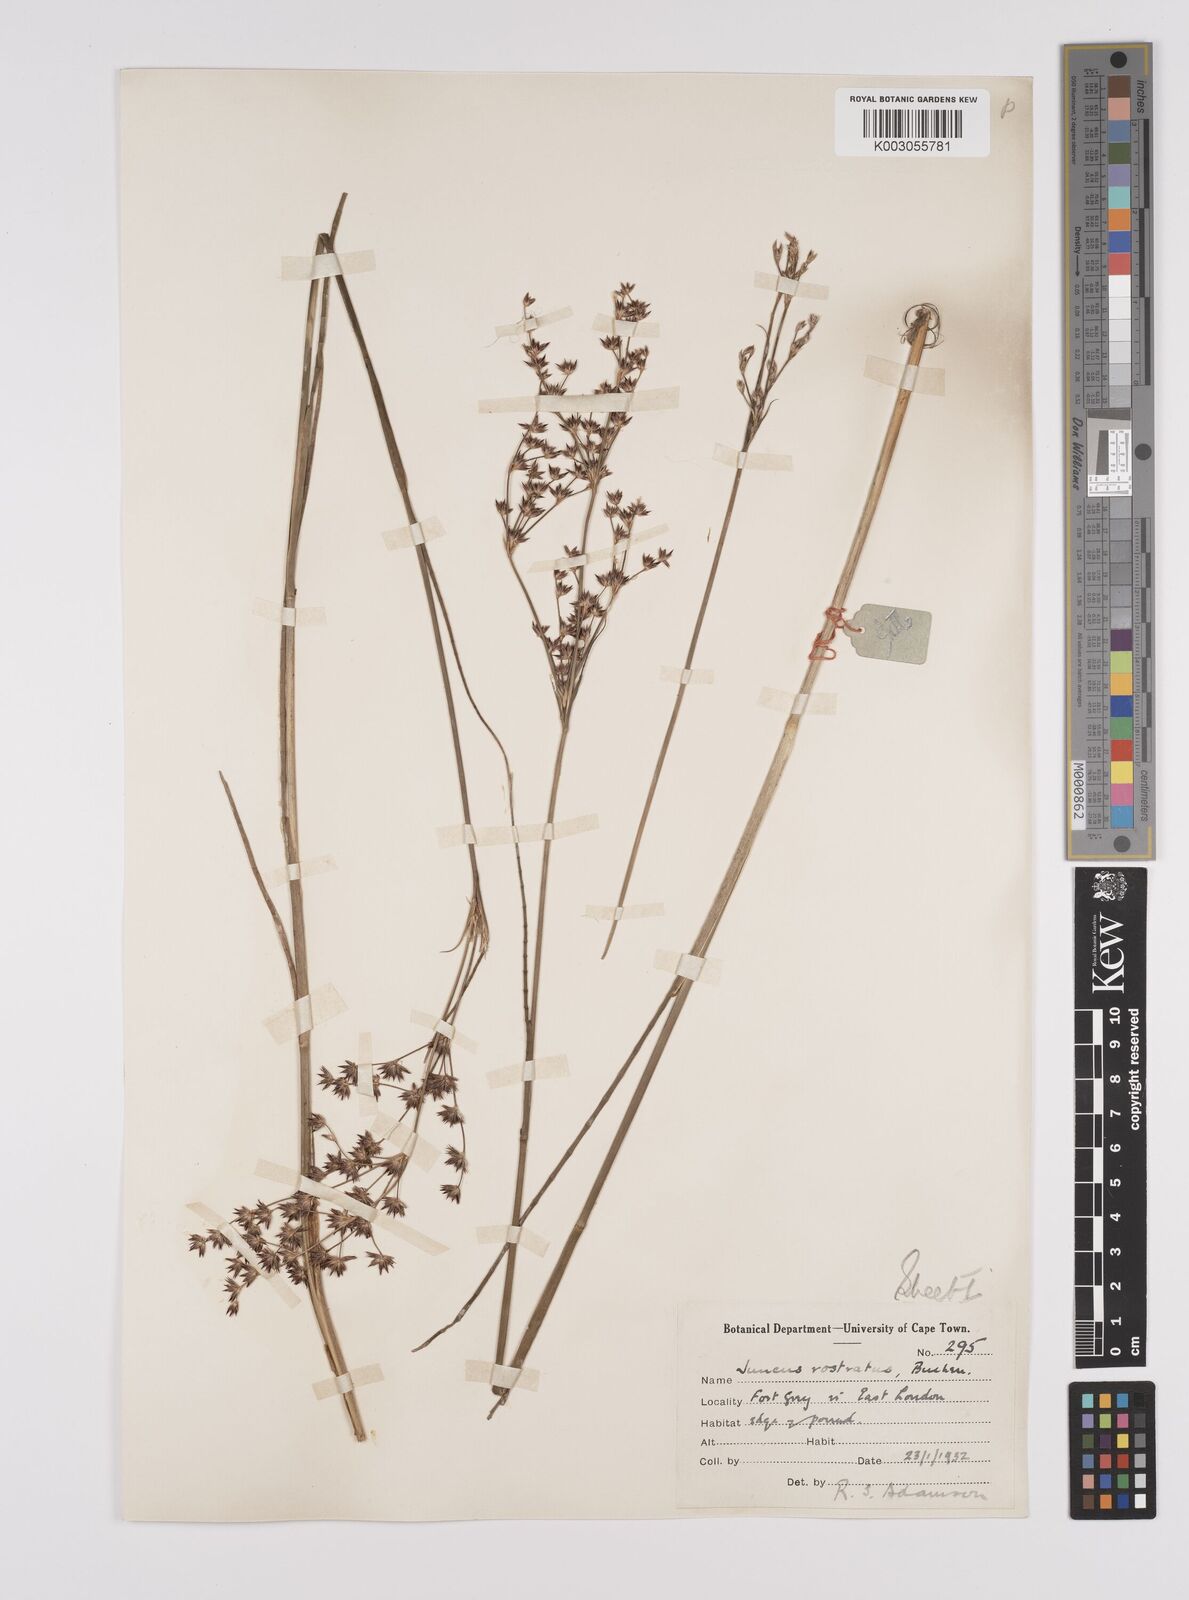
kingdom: Plantae
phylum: Tracheophyta
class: Liliopsida
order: Poales
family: Juncaceae
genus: Juncus
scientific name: Juncus exsertus
